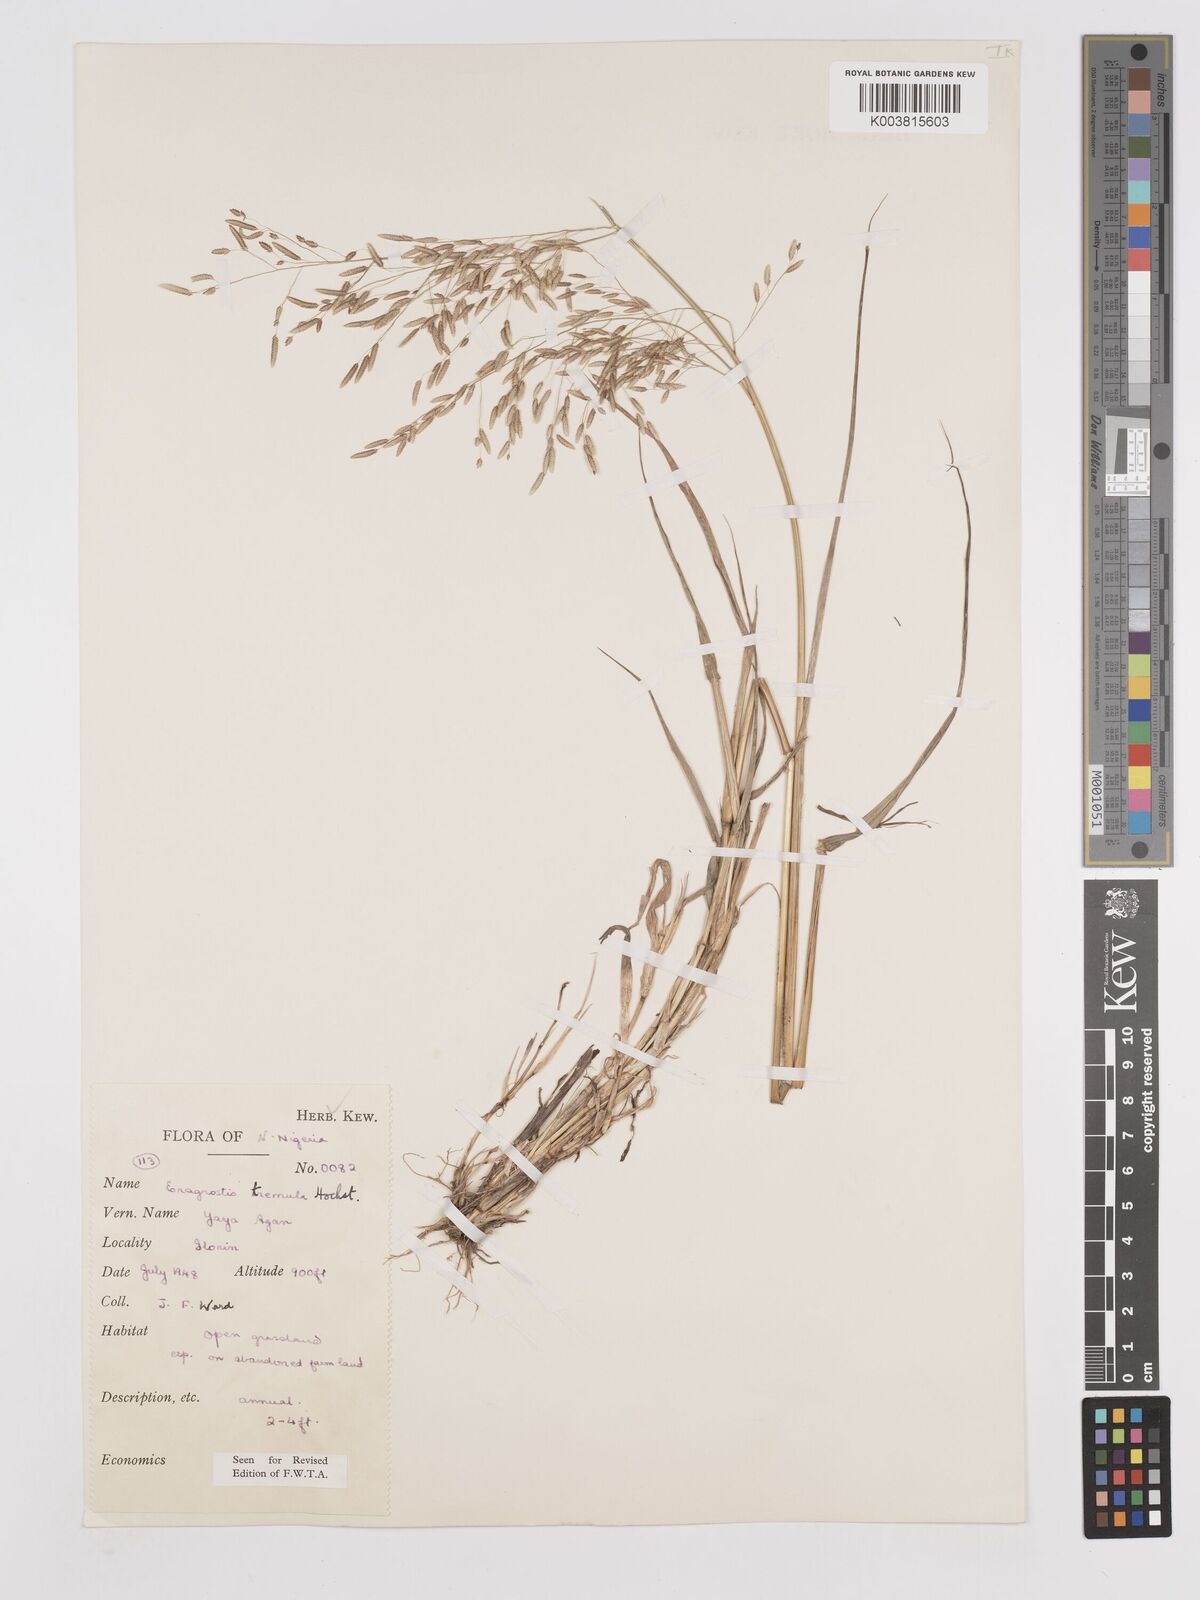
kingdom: Plantae
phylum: Tracheophyta
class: Liliopsida
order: Poales
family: Poaceae
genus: Eragrostis
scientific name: Eragrostis tremula
